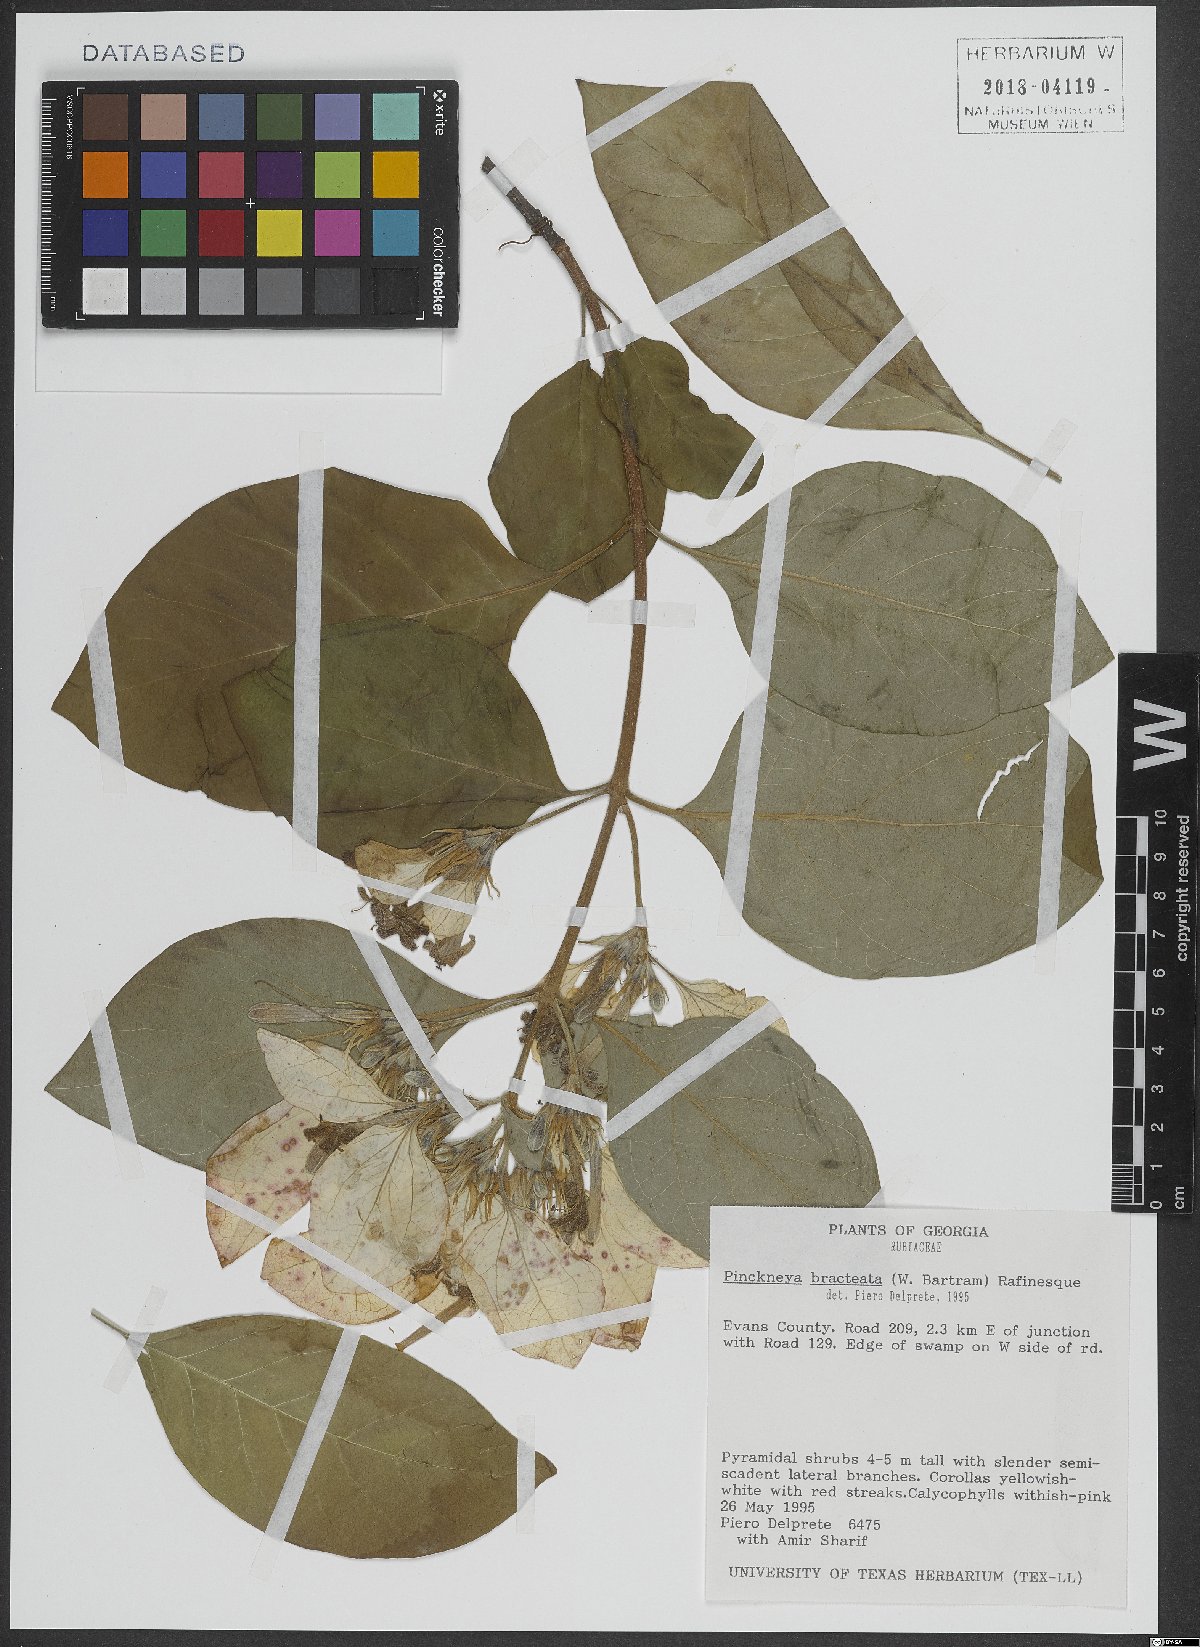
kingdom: Plantae
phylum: Tracheophyta
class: Magnoliopsida
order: Gentianales
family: Rubiaceae
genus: Pinckneya
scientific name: Pinckneya pubens
